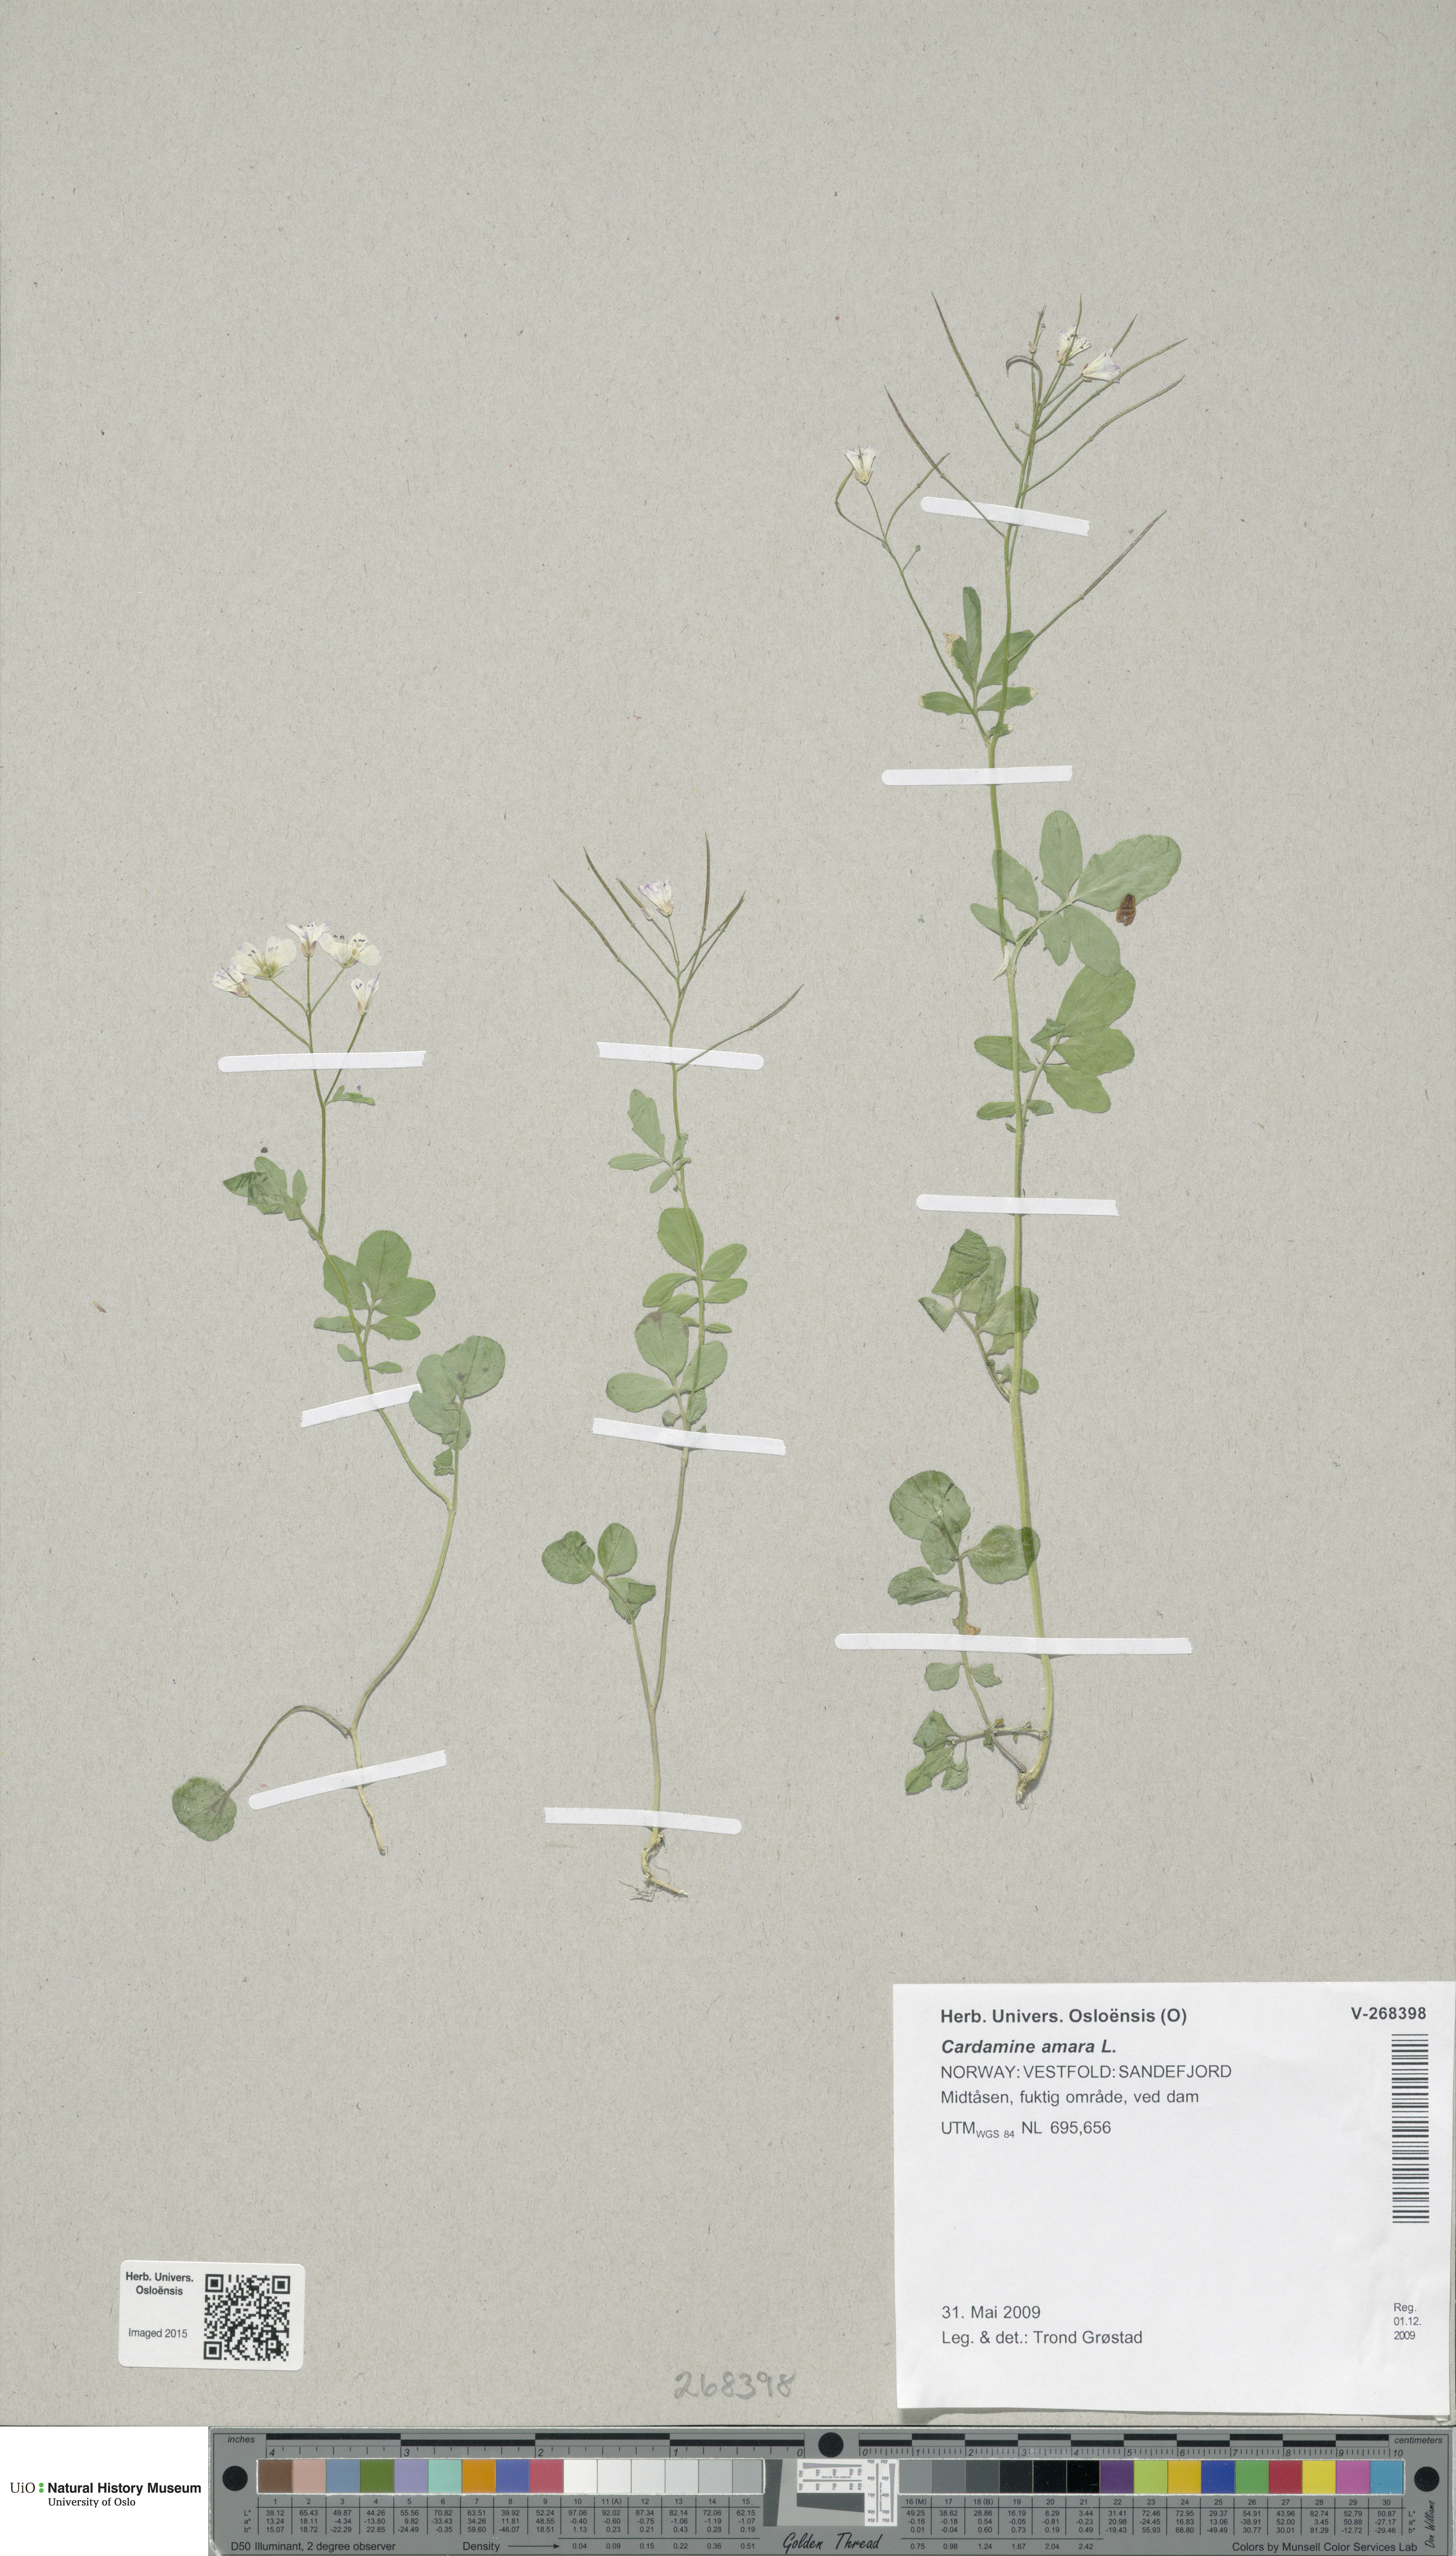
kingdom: Plantae
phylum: Tracheophyta
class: Magnoliopsida
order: Brassicales
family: Brassicaceae
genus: Cardamine
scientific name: Cardamine amara
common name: Large bitter-cress
